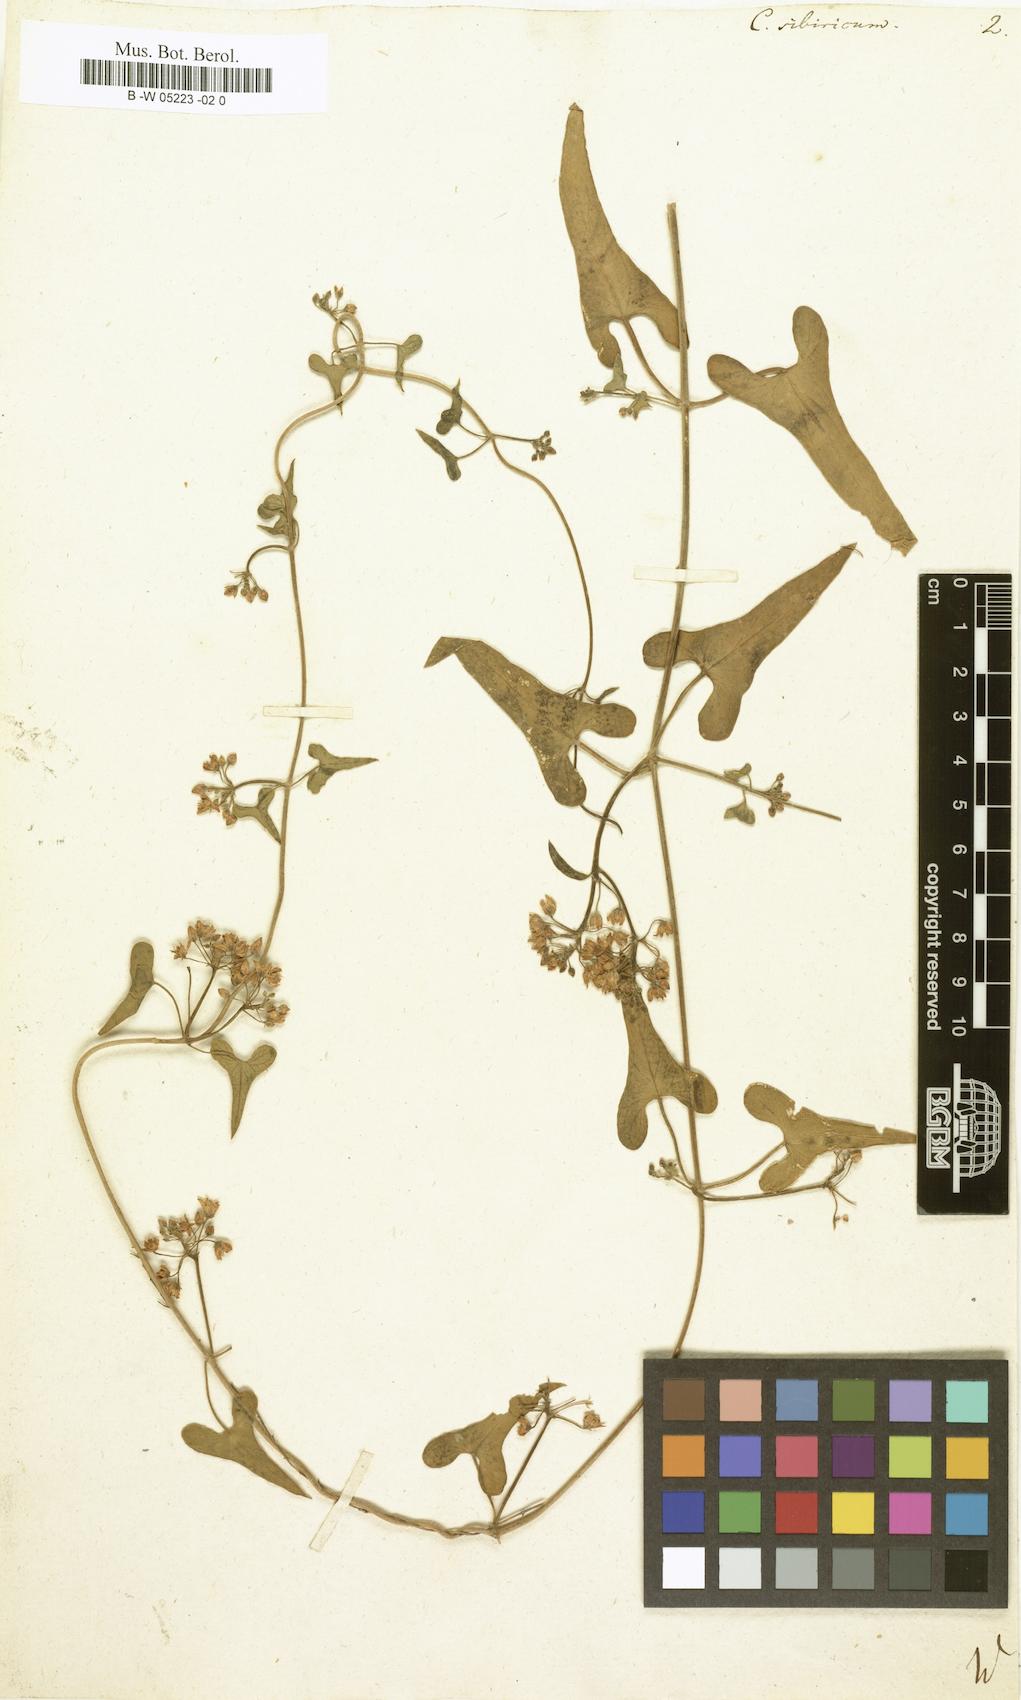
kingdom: Plantae
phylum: Tracheophyta
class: Magnoliopsida
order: Gentianales
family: Apocynaceae
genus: Cynanchum
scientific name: Cynanchum
